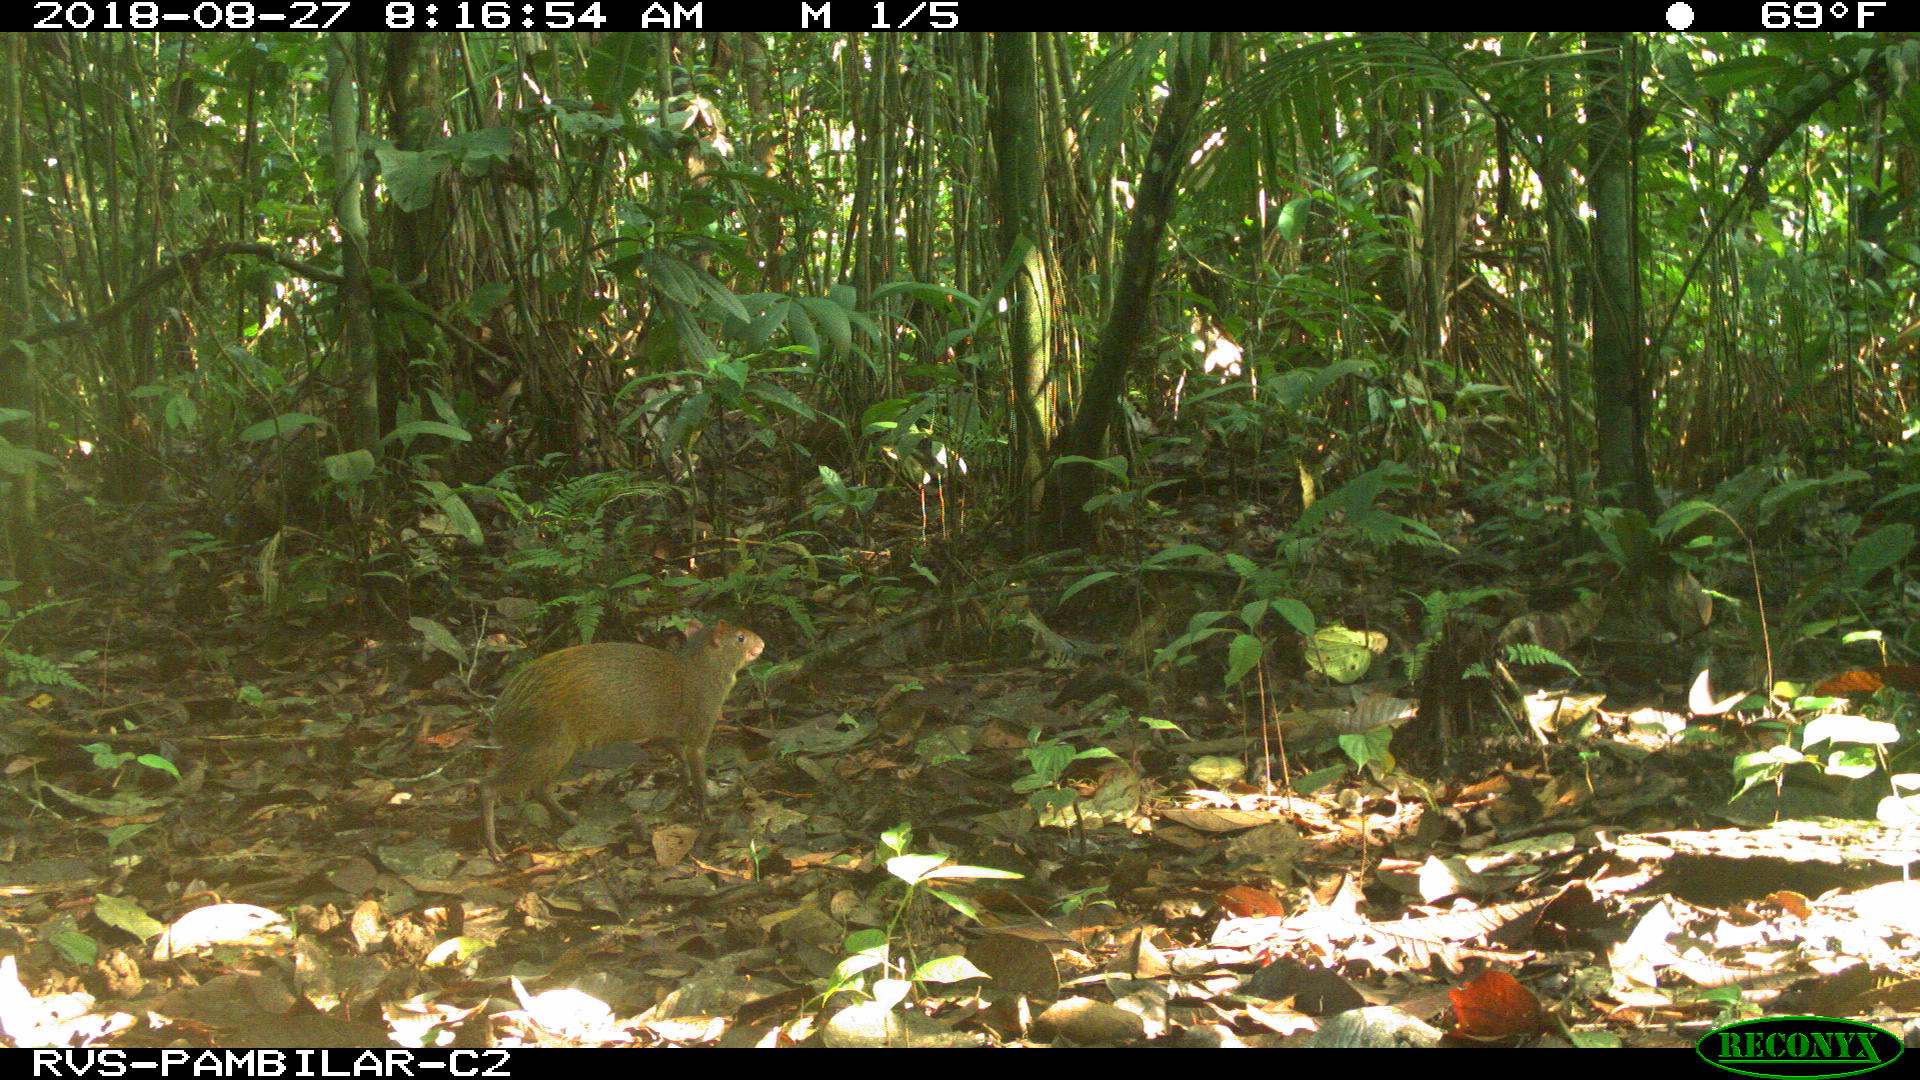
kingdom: Animalia
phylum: Chordata
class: Mammalia
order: Rodentia
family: Dasyproctidae
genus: Dasyprocta
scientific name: Dasyprocta punctata
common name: Central american agouti
